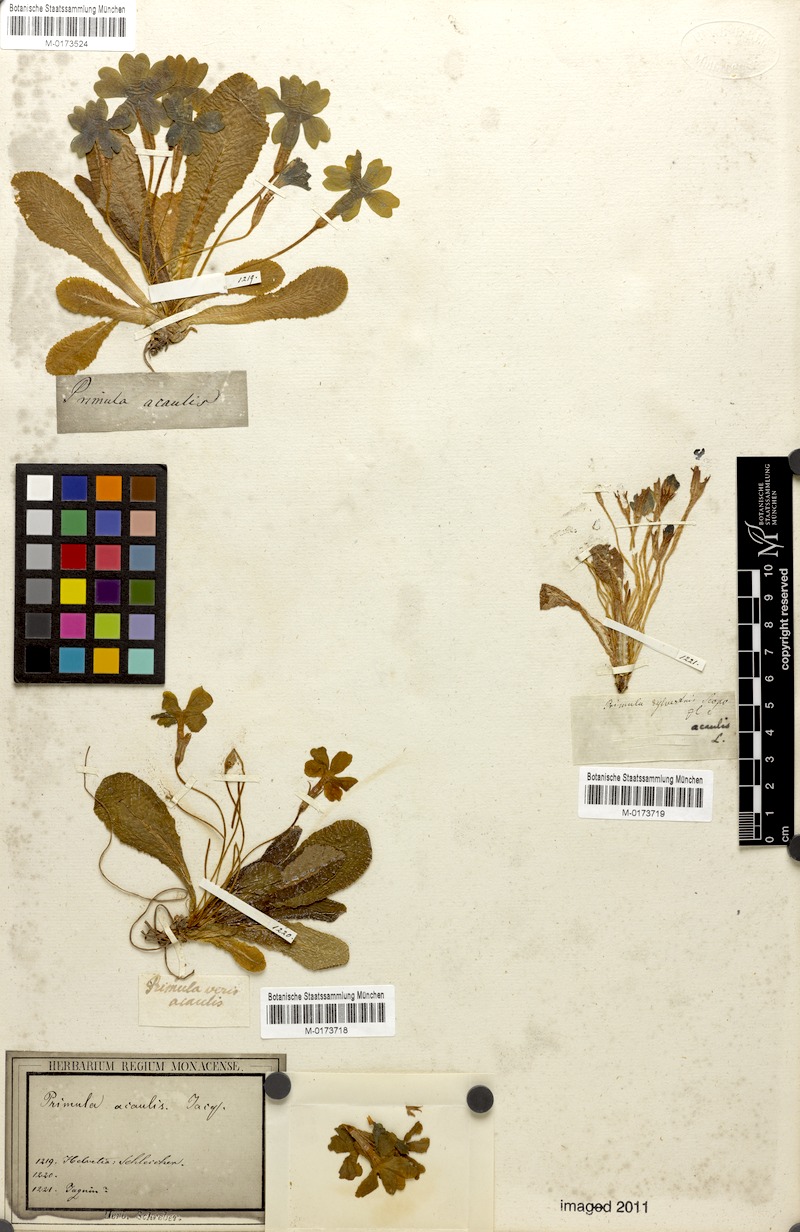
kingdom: Plantae
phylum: Tracheophyta
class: Magnoliopsida
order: Ericales
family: Primulaceae
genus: Primula
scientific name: Primula vulgaris
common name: Primrose
